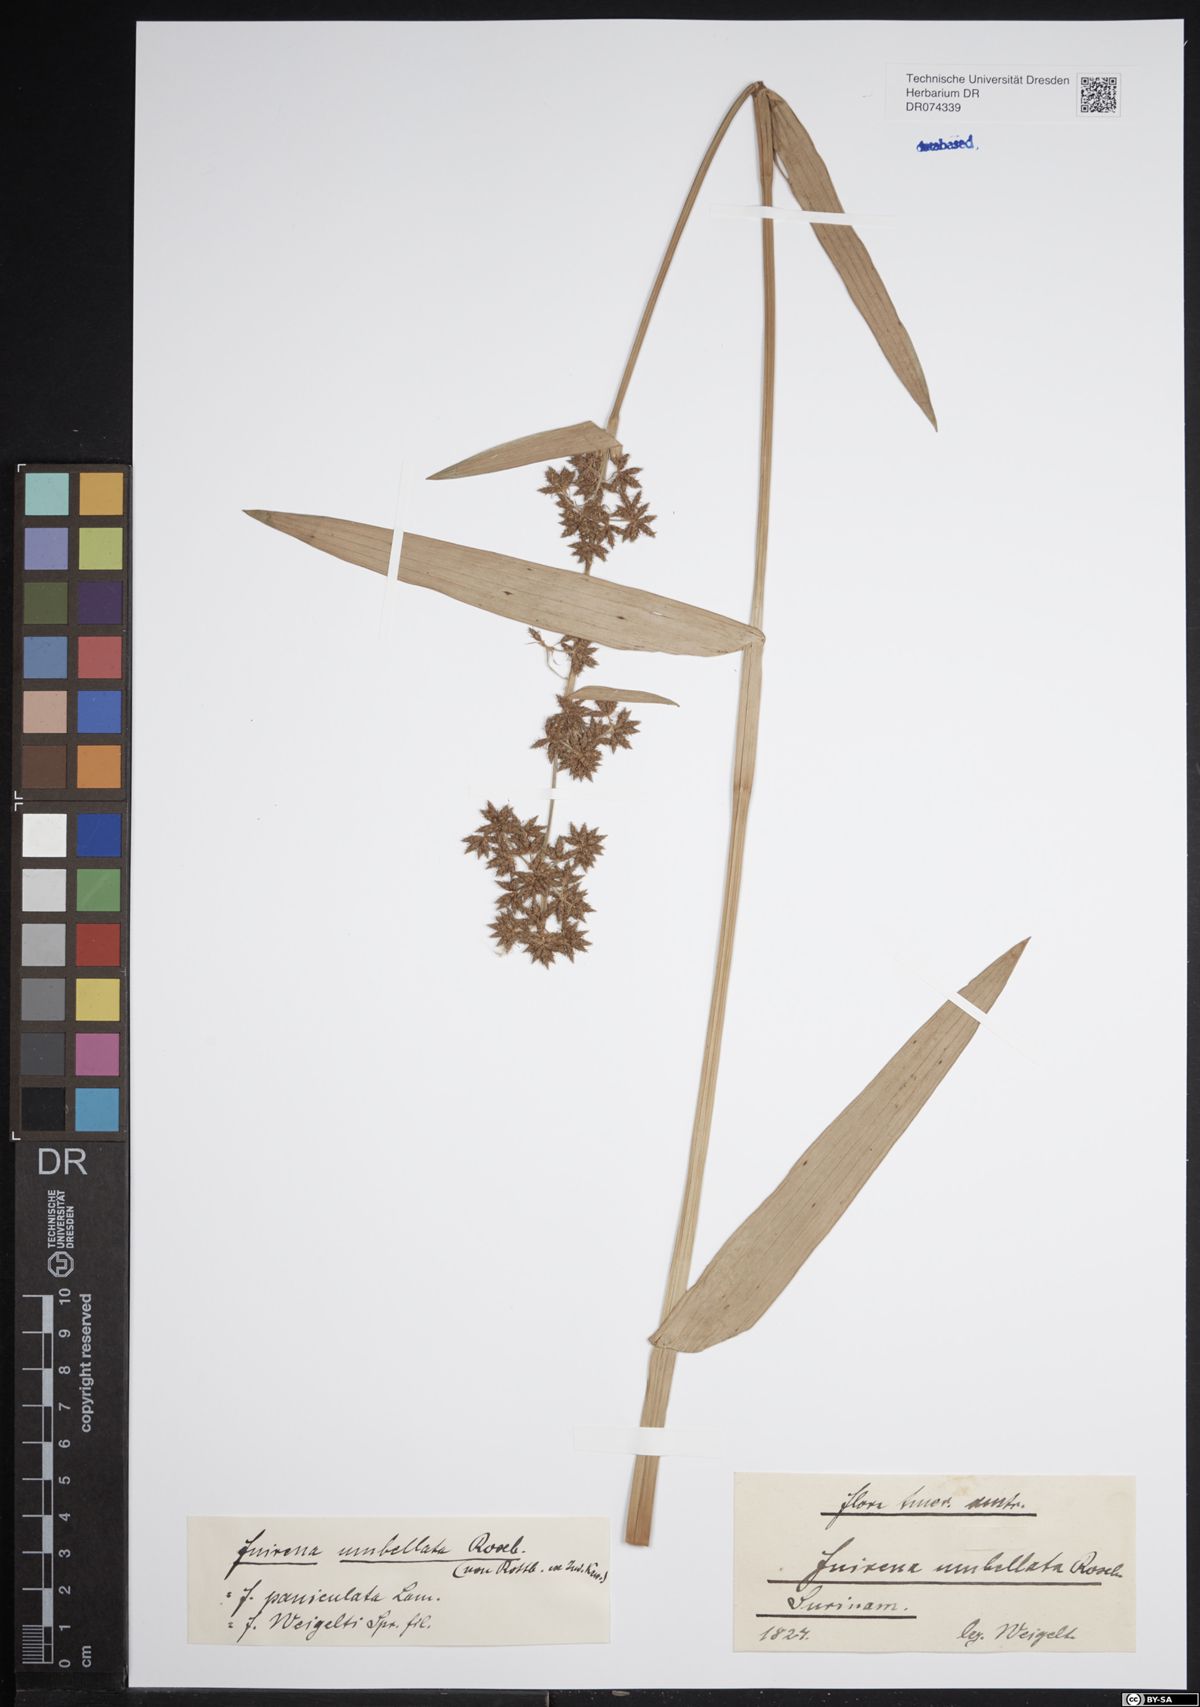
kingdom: Plantae
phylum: Tracheophyta
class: Liliopsida
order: Poales
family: Cyperaceae
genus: Fuirena
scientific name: Fuirena umbellata
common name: Yefen
